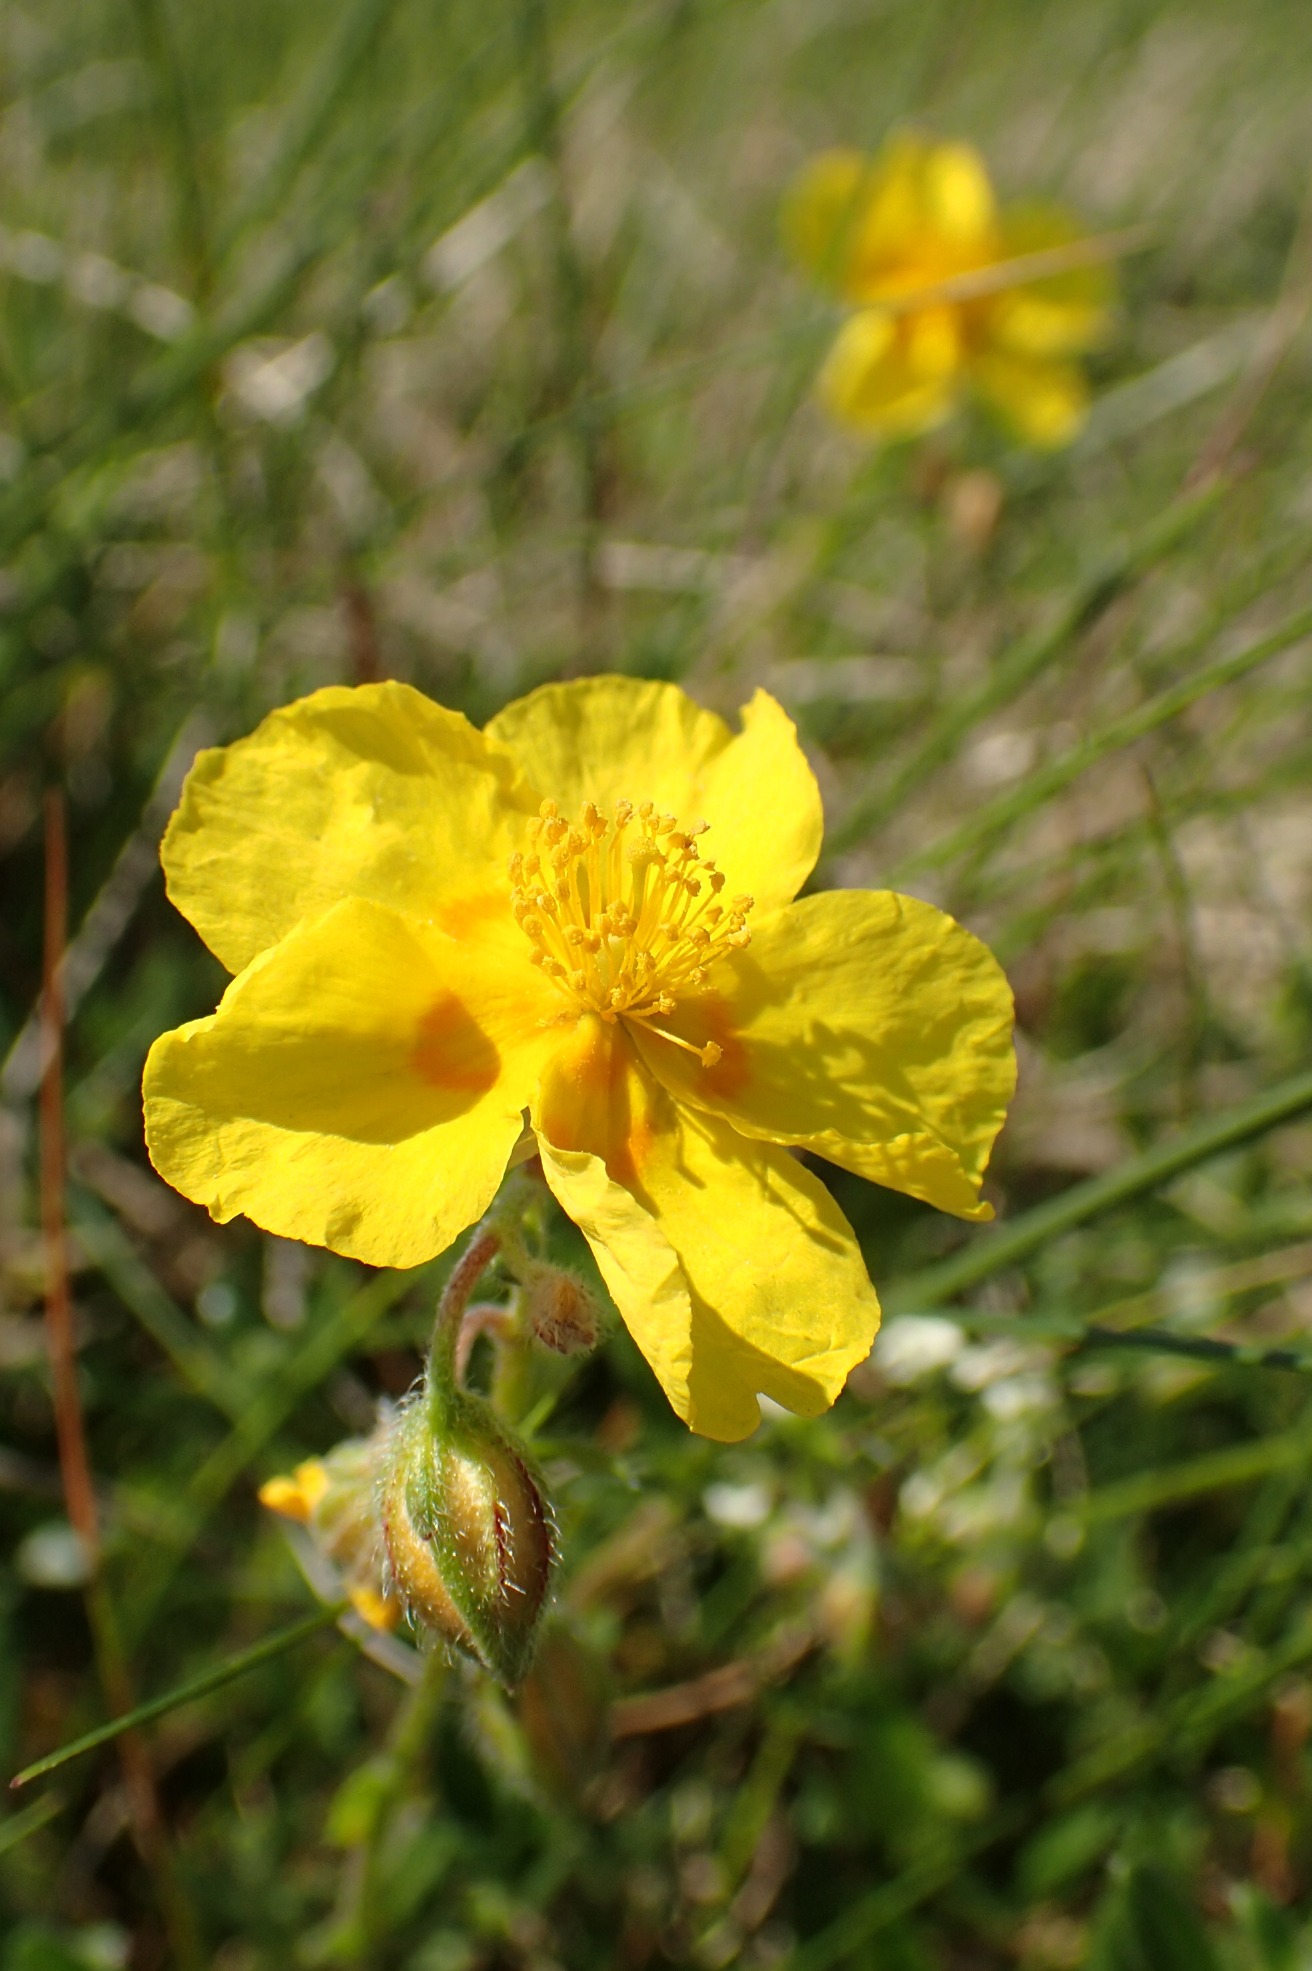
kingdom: Plantae
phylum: Tracheophyta
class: Magnoliopsida
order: Malvales
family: Cistaceae
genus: Helianthemum
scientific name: Helianthemum nummularium
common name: Bakke-soløje
